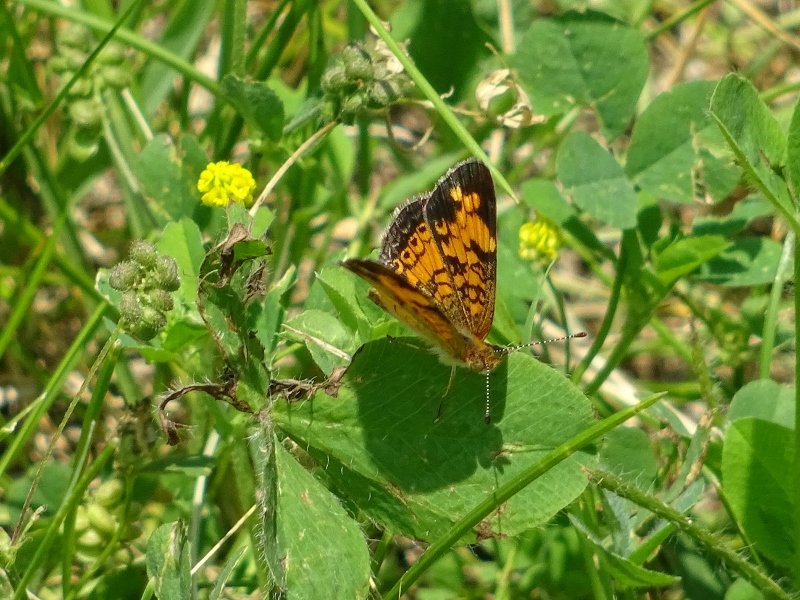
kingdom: Animalia
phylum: Arthropoda
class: Insecta
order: Lepidoptera
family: Nymphalidae
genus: Phyciodes
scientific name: Phyciodes tharos
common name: Pearl Crescent
